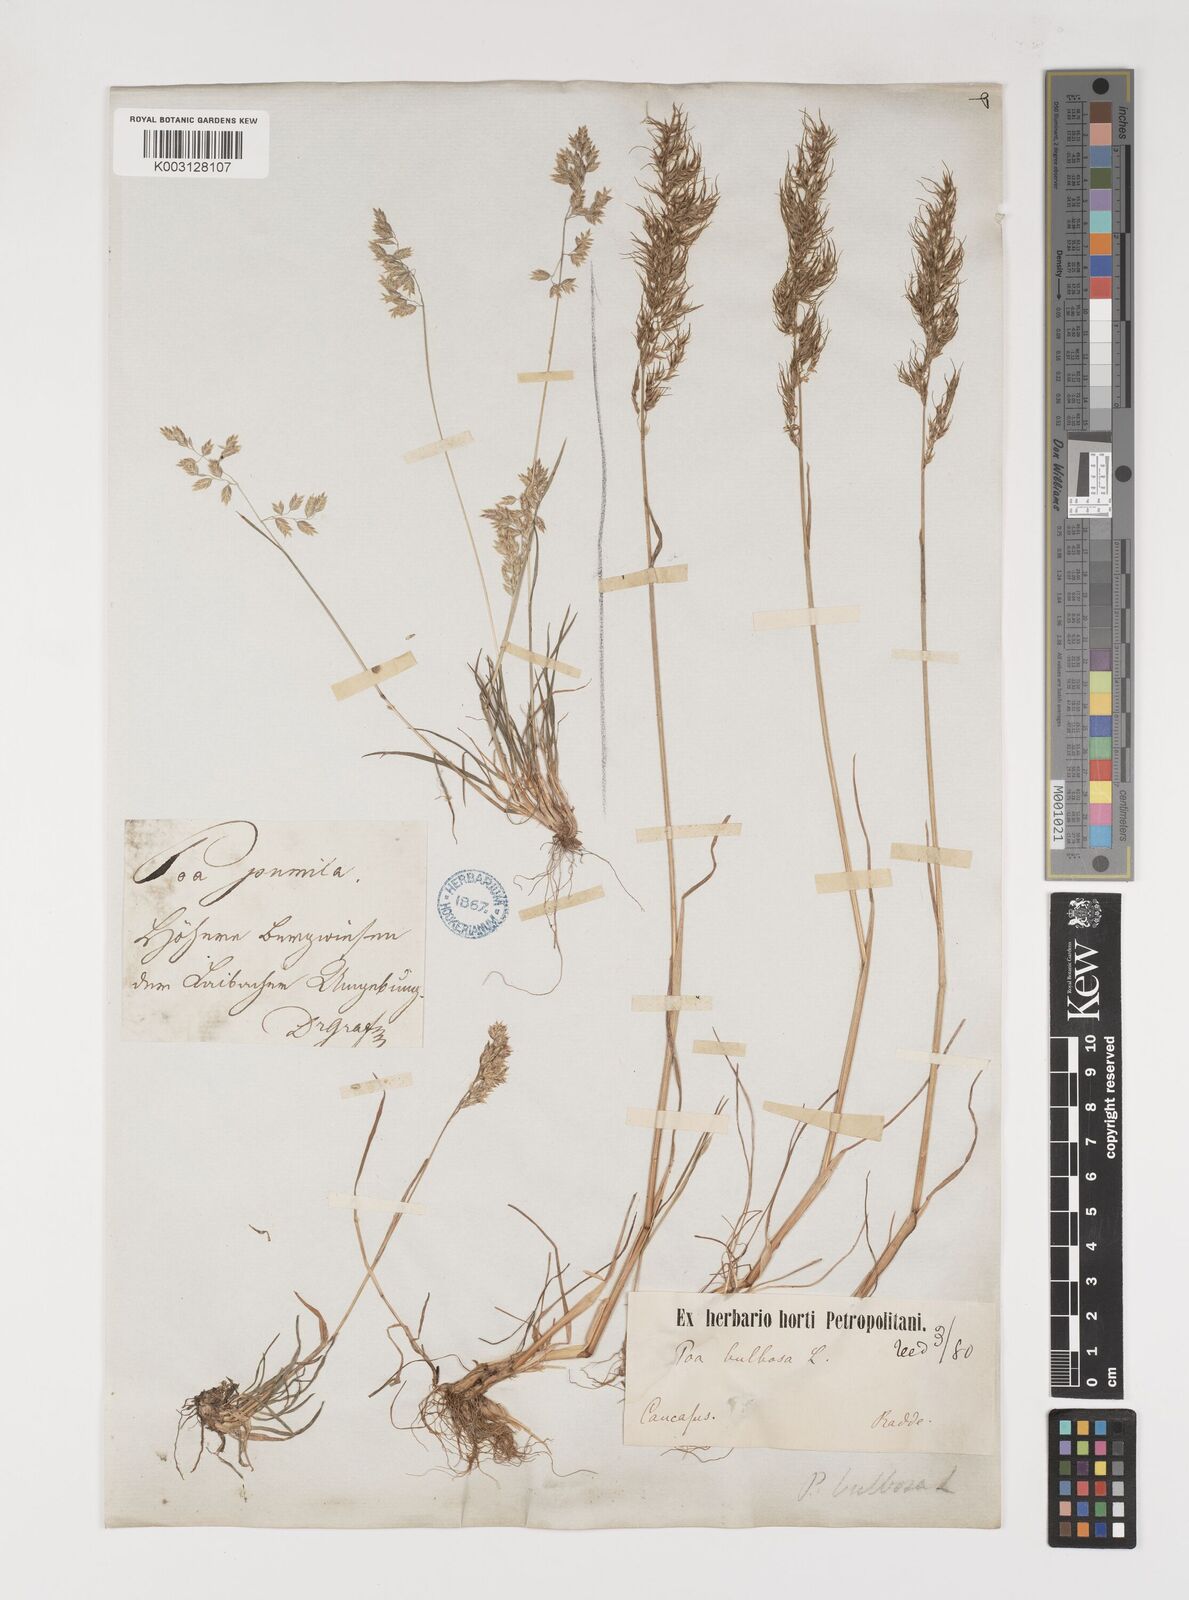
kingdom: Plantae
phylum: Tracheophyta
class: Liliopsida
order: Poales
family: Poaceae
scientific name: Poaceae
